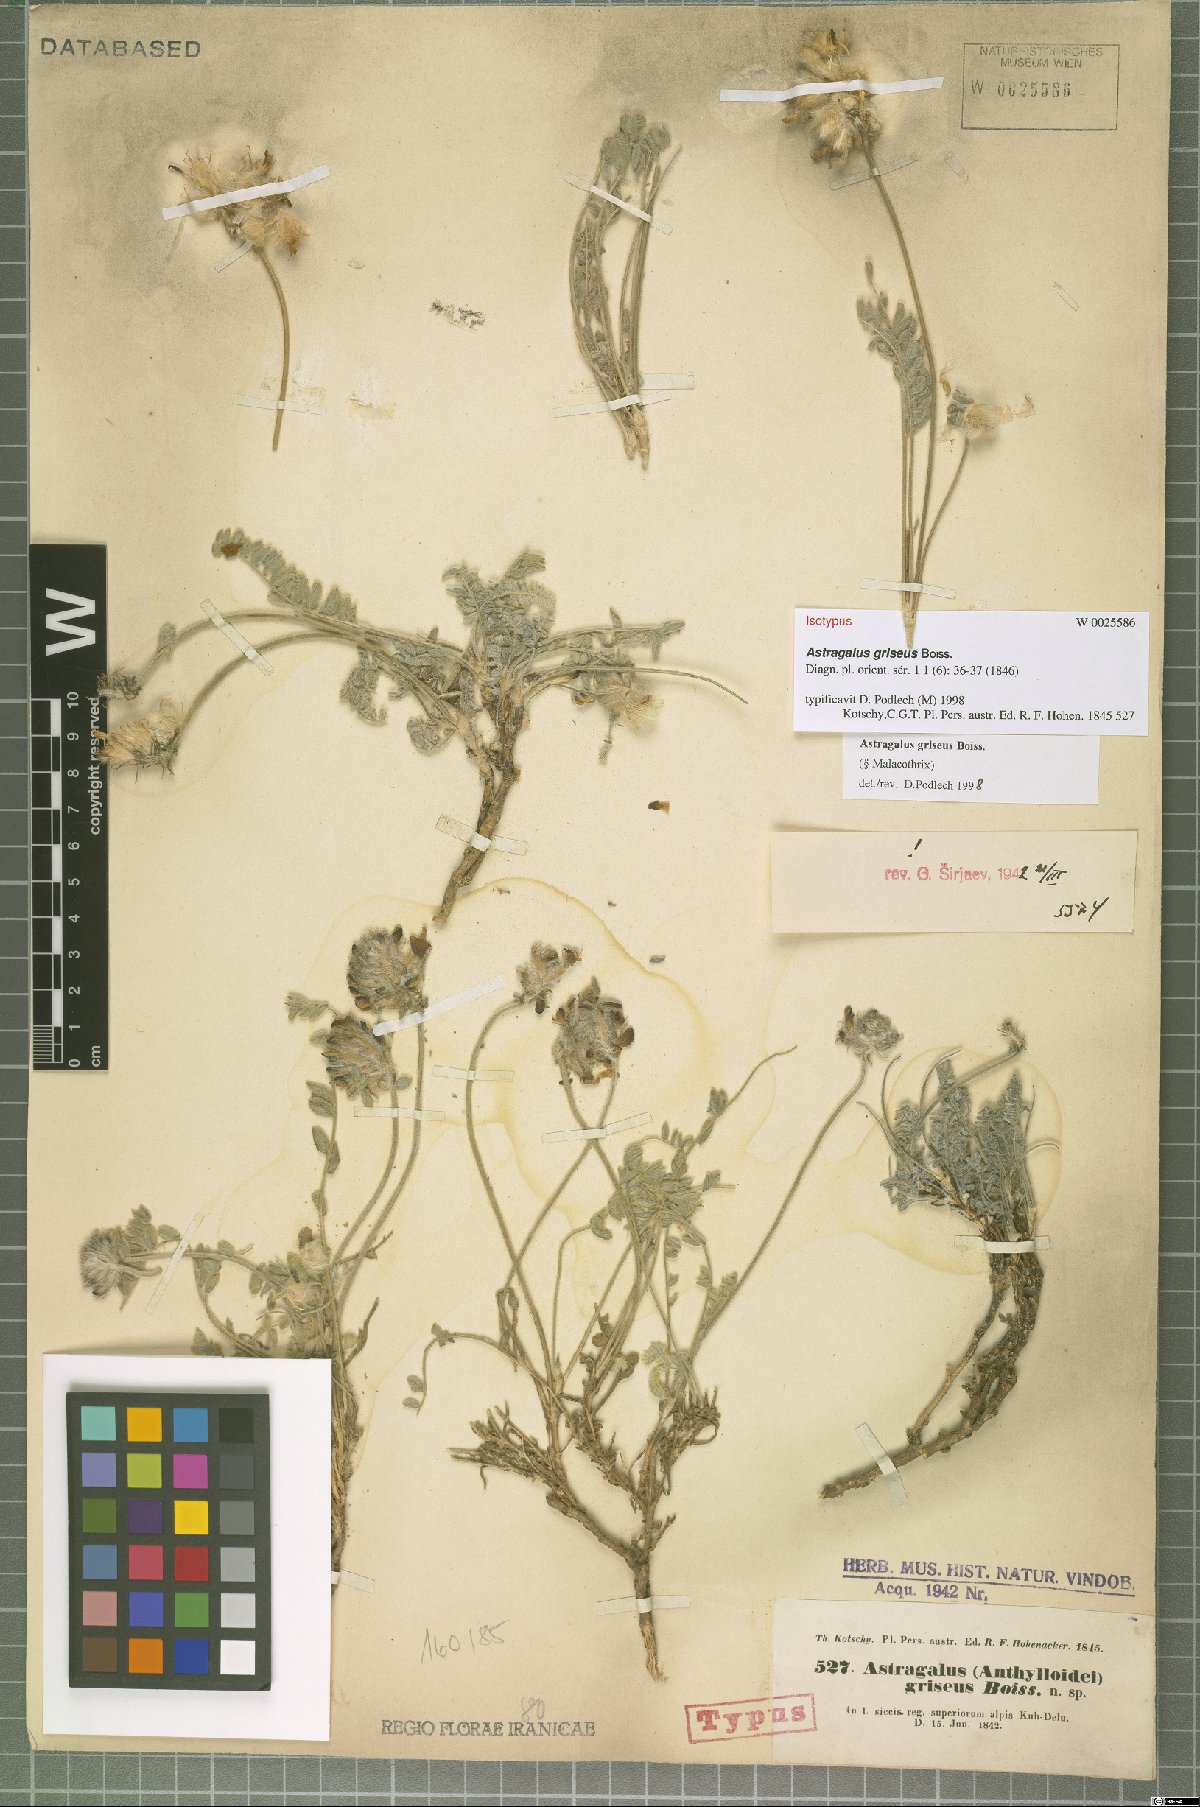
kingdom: Plantae
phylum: Tracheophyta
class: Magnoliopsida
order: Fabales
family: Fabaceae
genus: Astragalus
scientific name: Astragalus griseus
